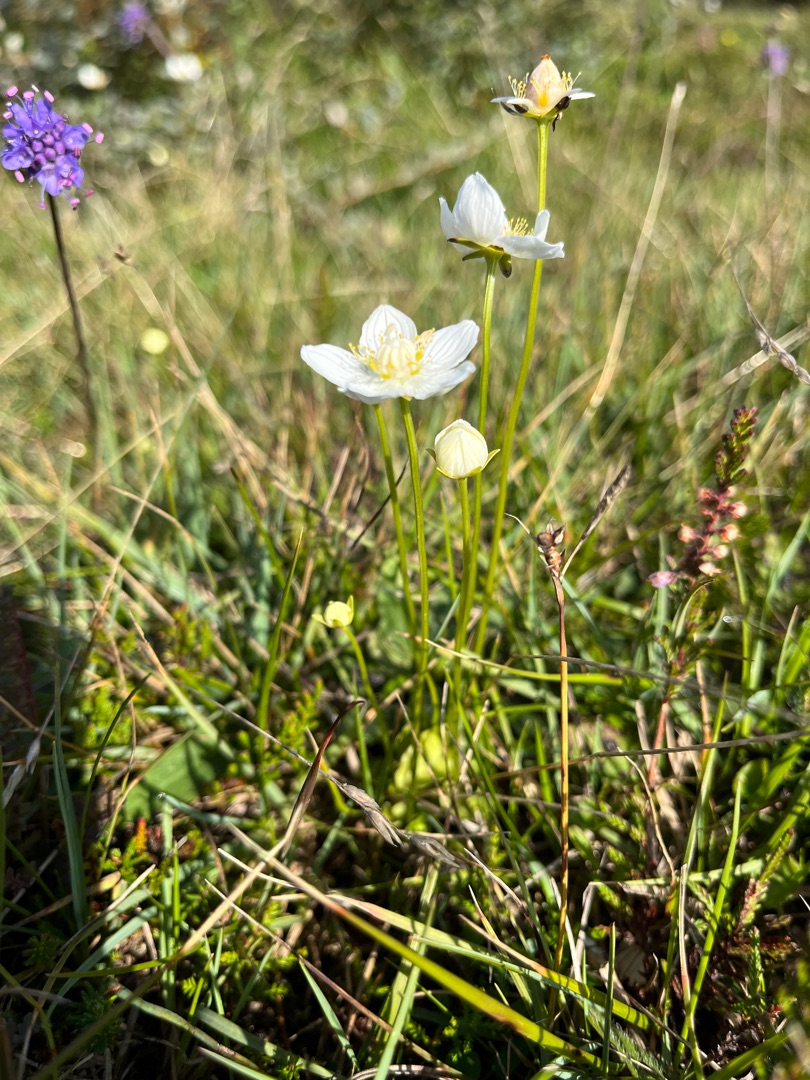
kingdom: Plantae
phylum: Tracheophyta
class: Magnoliopsida
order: Celastrales
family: Parnassiaceae
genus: Parnassia
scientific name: Parnassia palustris
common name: Leverurt
